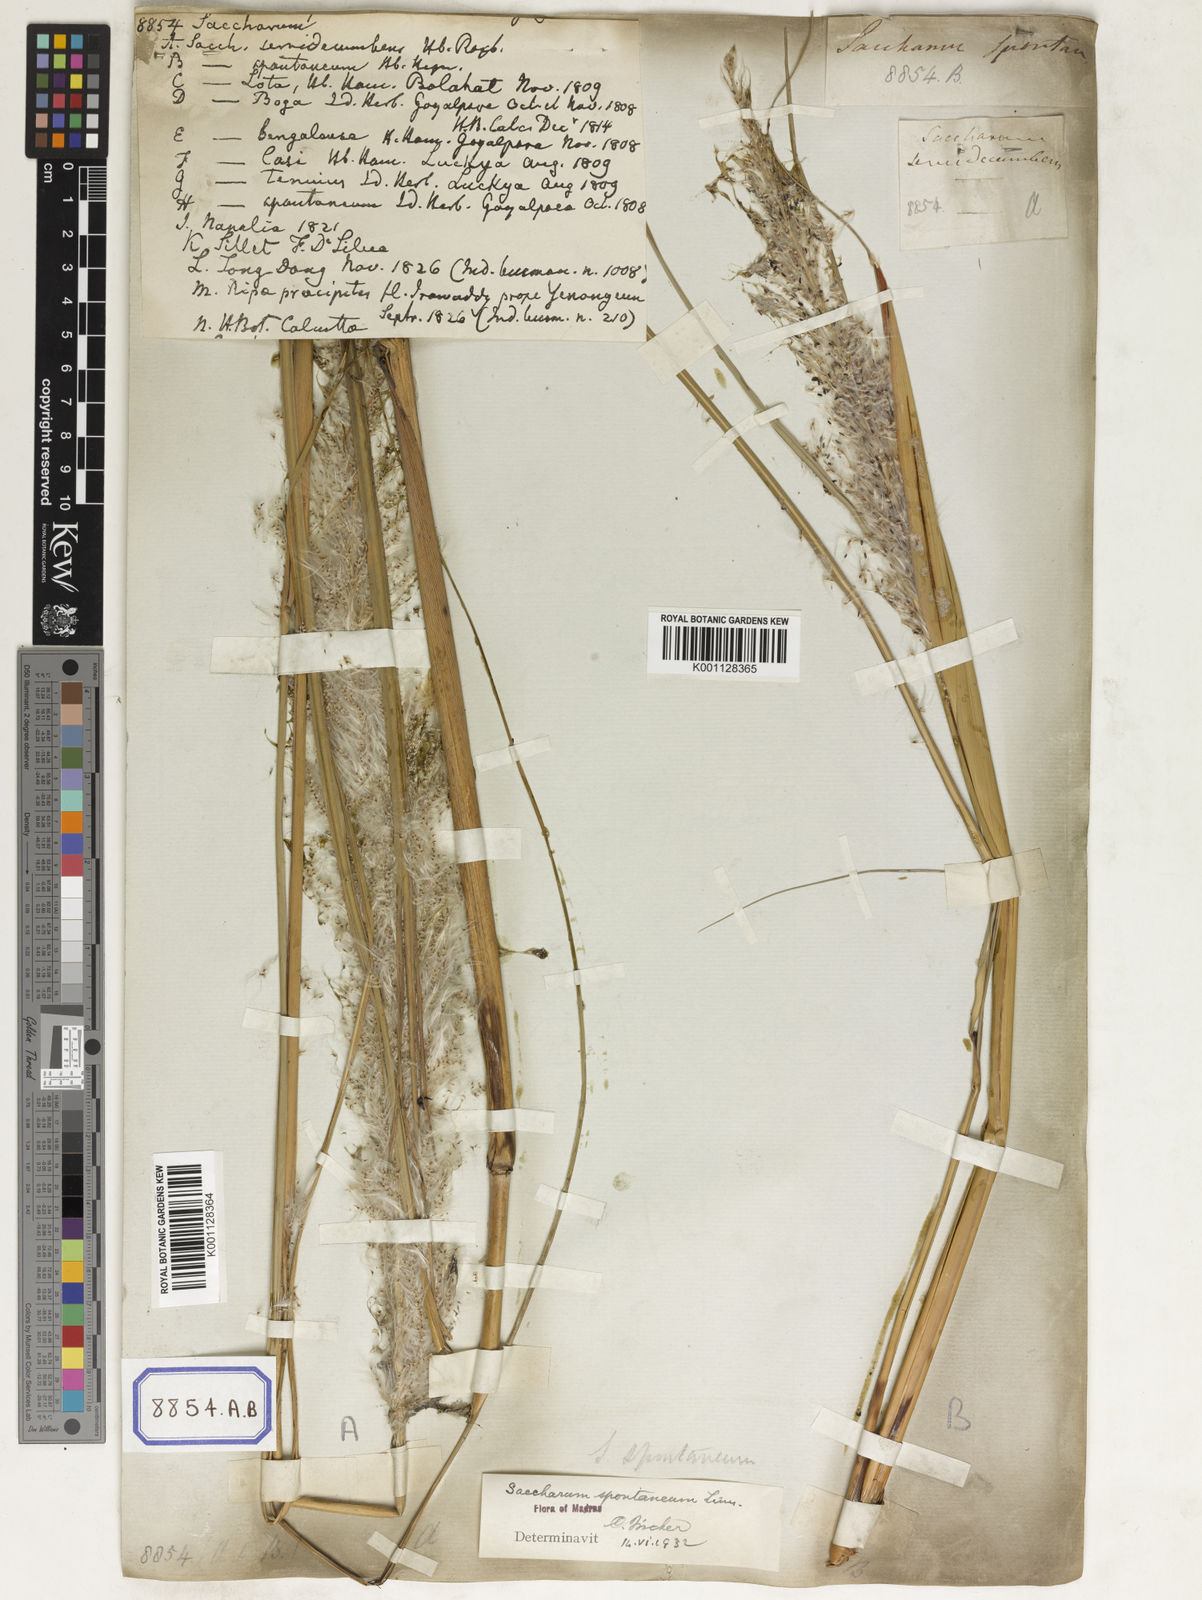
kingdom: Plantae
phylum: Tracheophyta
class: Liliopsida
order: Poales
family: Poaceae
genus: Saccharum
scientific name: Saccharum
